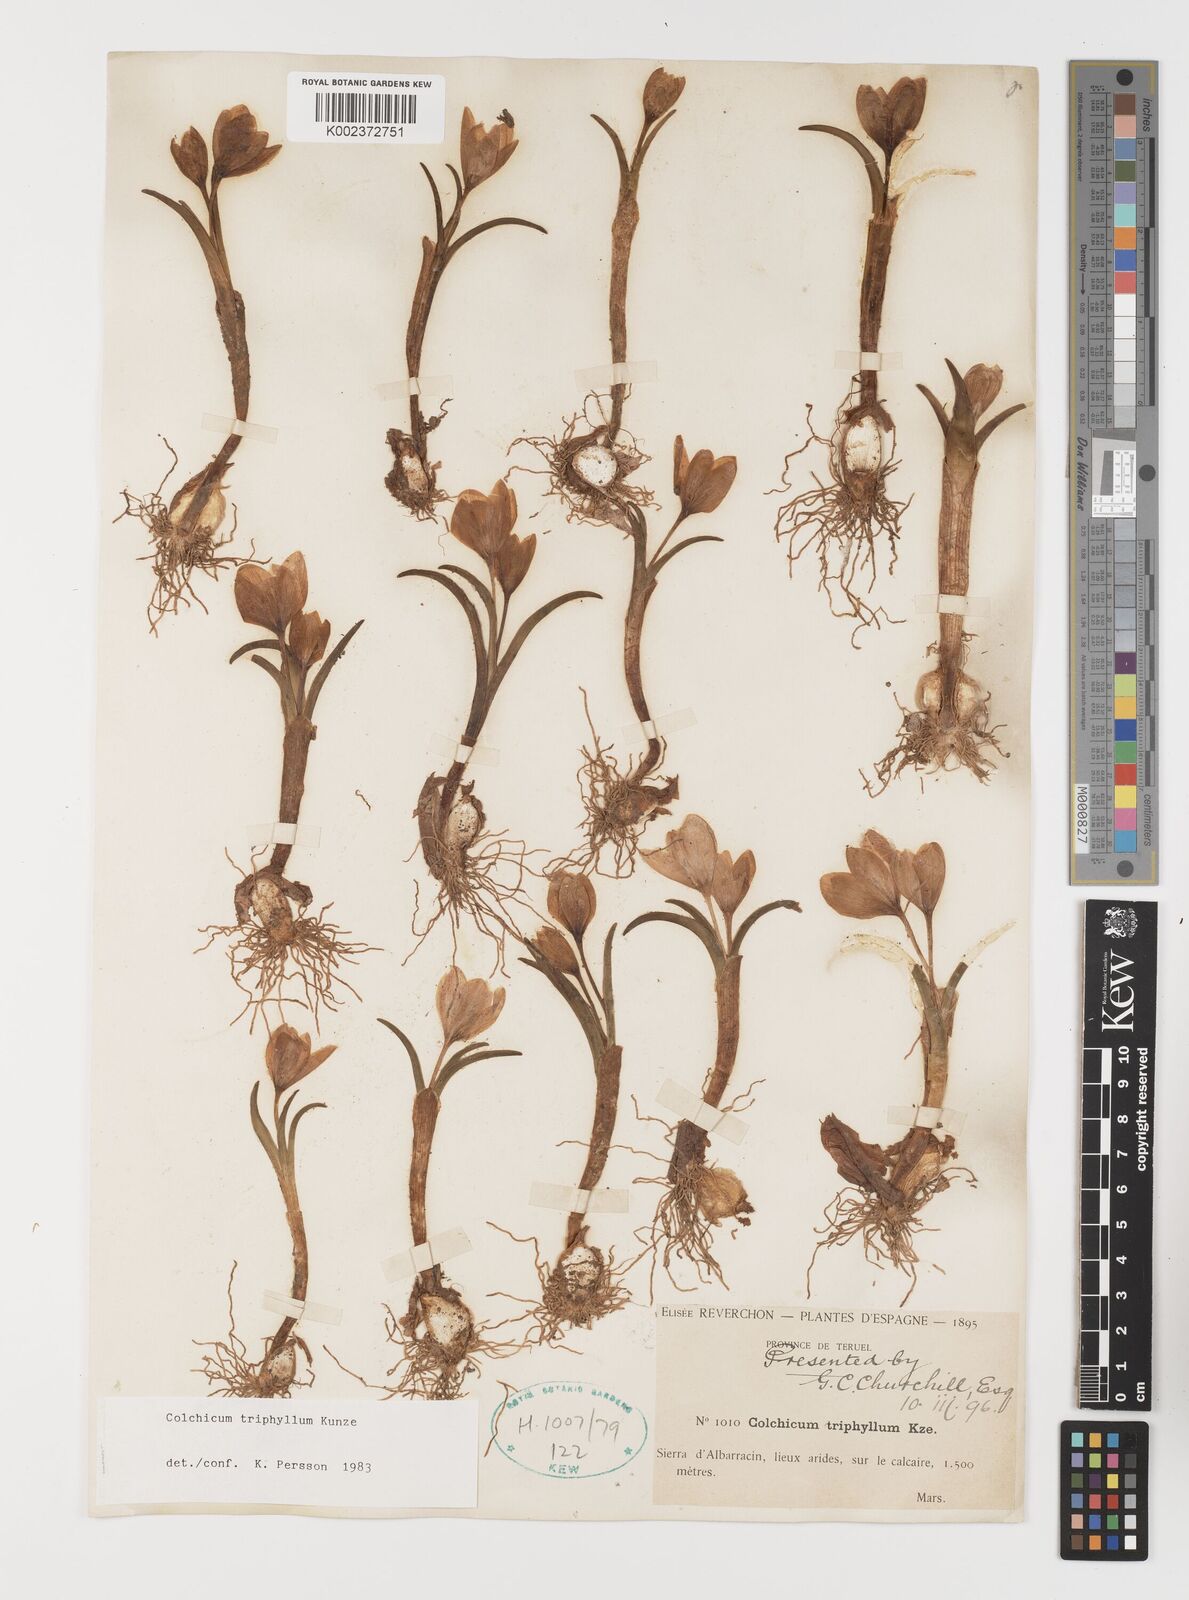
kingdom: Plantae
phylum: Tracheophyta
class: Liliopsida
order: Liliales
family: Colchicaceae
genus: Colchicum
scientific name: Colchicum
